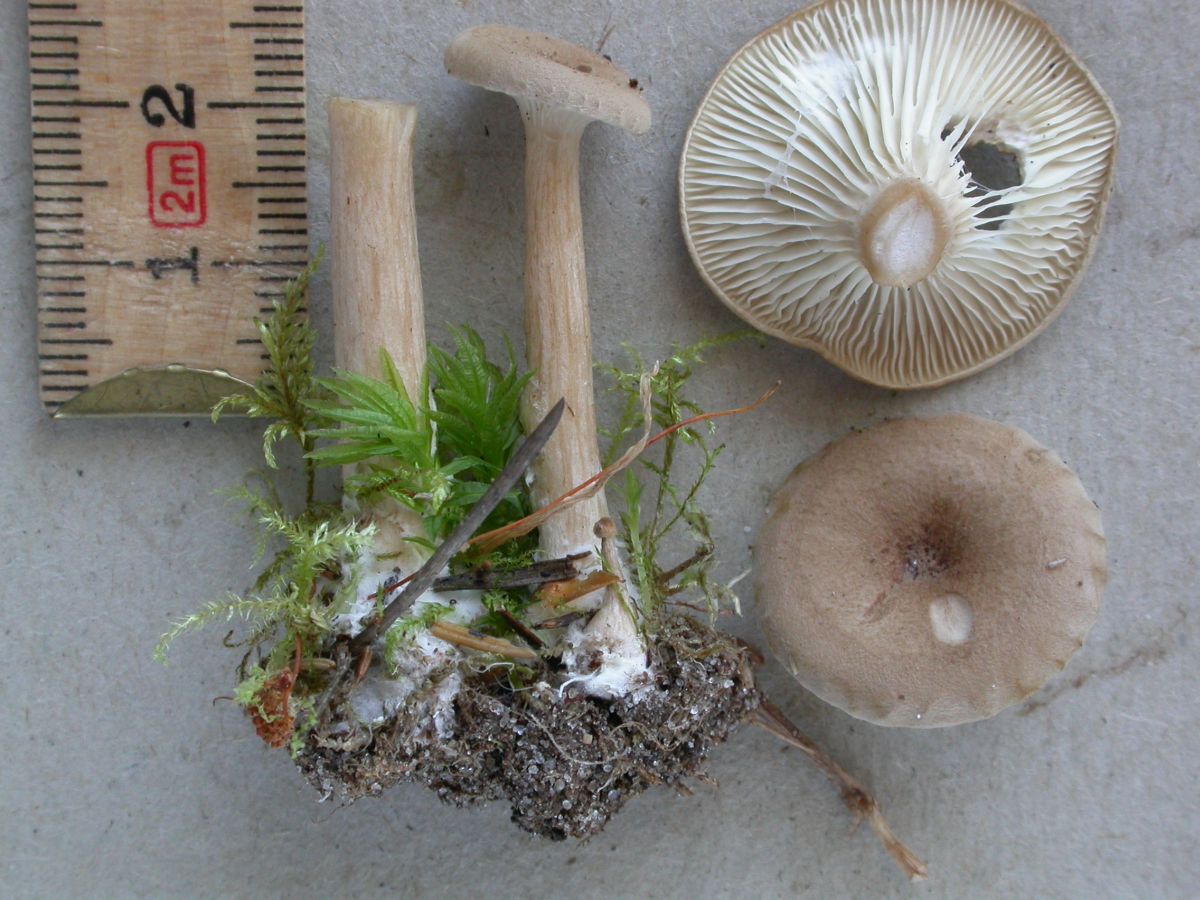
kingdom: Fungi
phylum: Basidiomycota
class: Agaricomycetes
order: Agaricales
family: Tricholomataceae
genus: Infundibulicybe
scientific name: Infundibulicybe squamulosa
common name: småskællet tragthat
